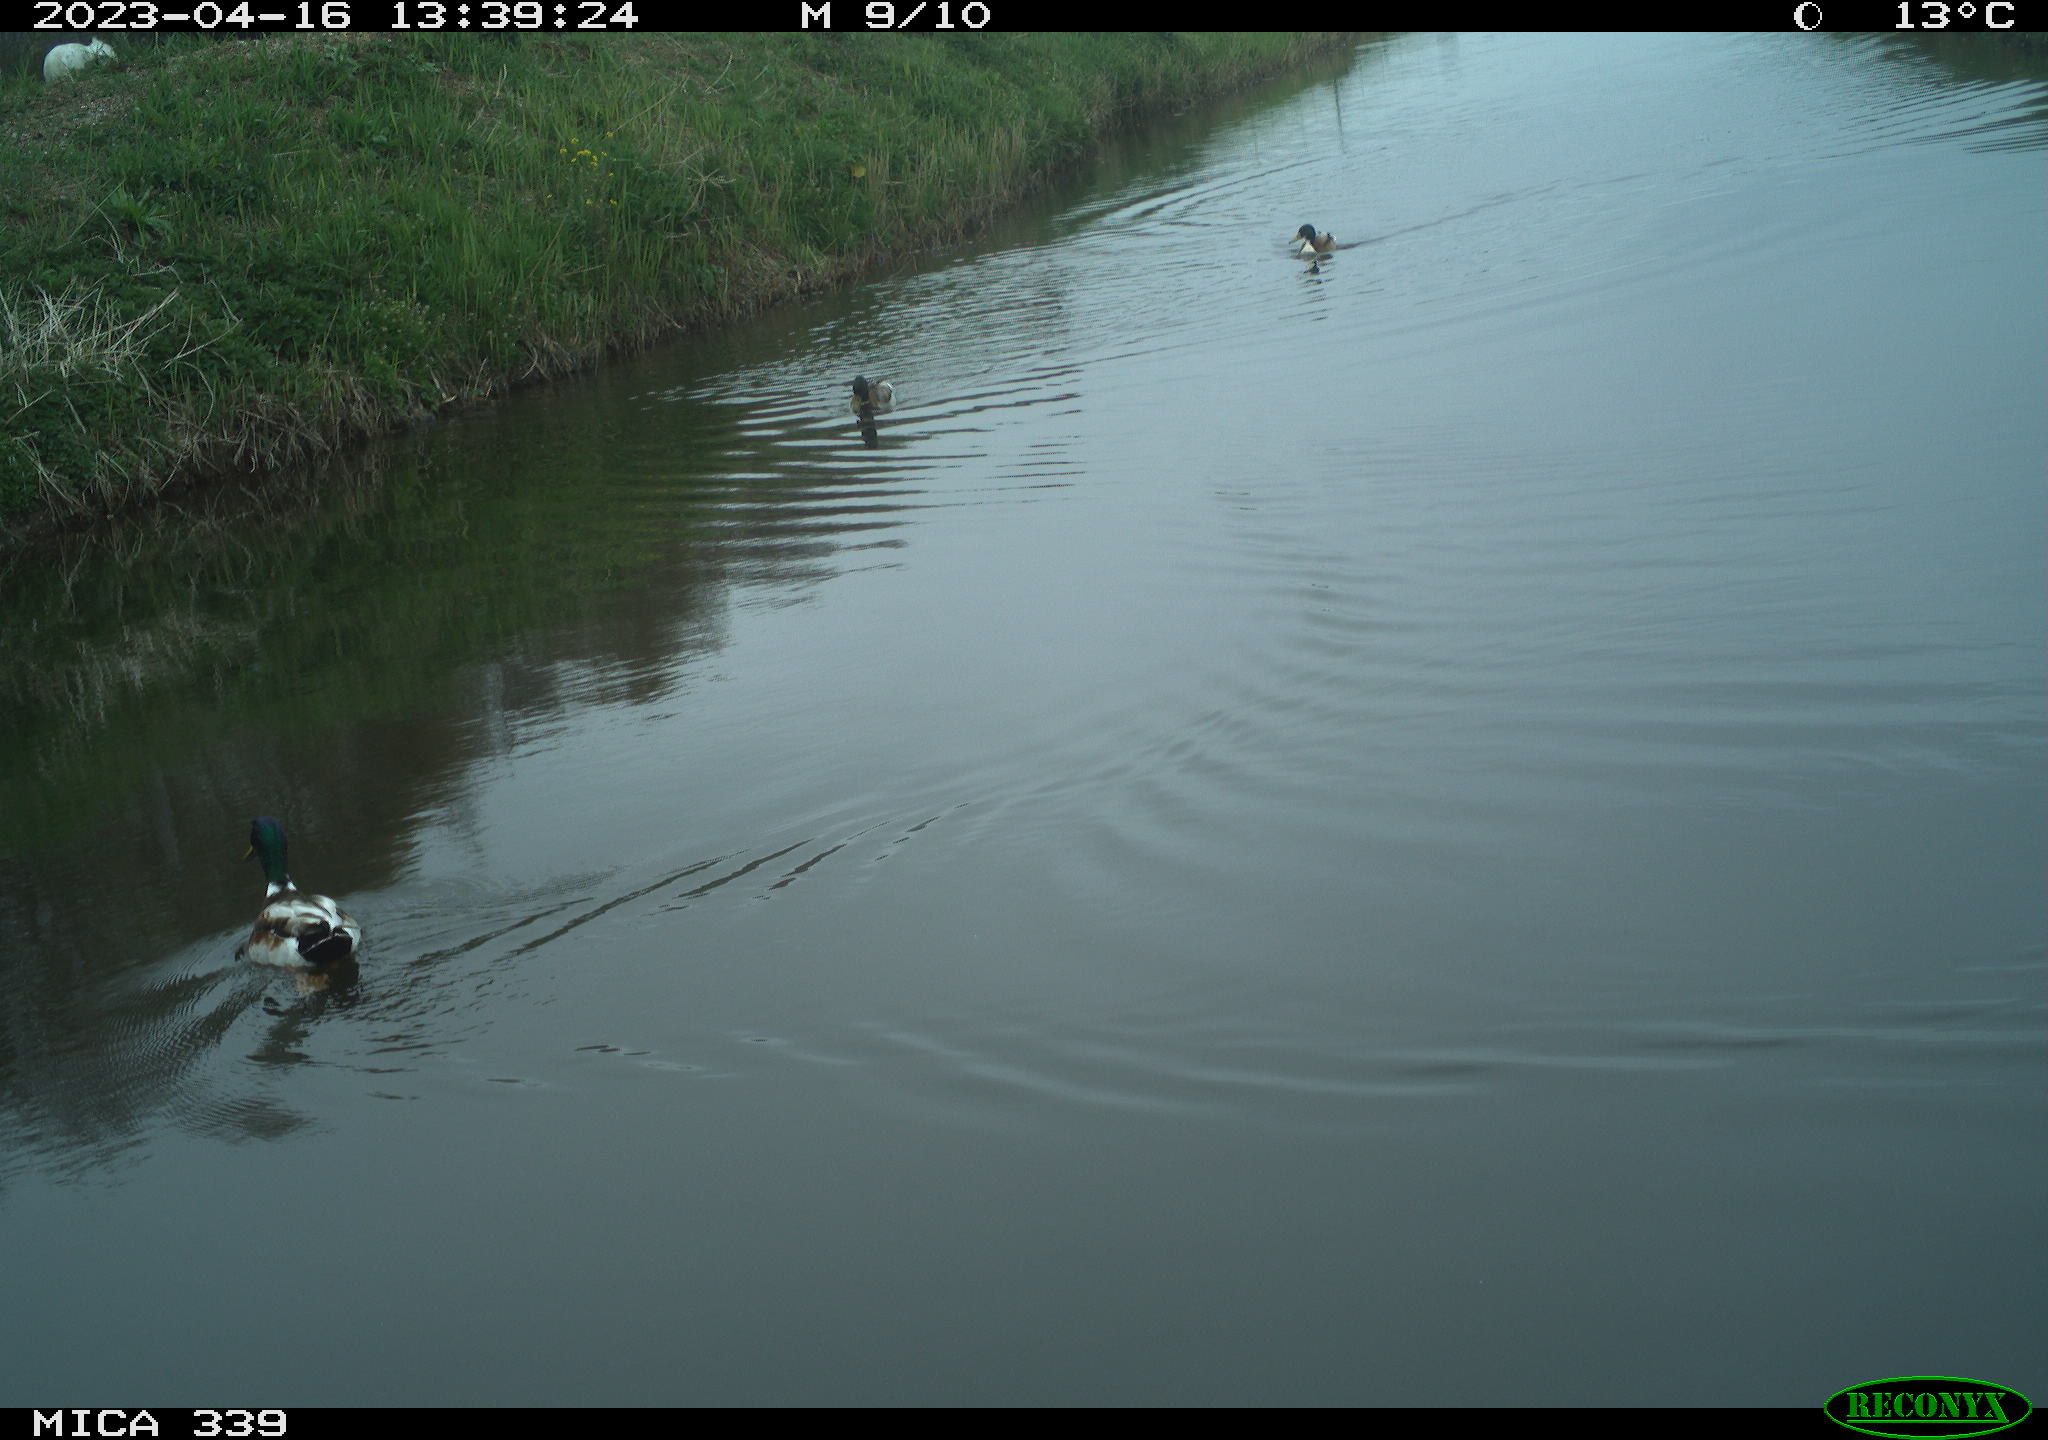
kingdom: Animalia
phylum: Chordata
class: Aves
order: Anseriformes
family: Anatidae
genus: Anas
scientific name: Anas platyrhynchos
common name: Mallard
